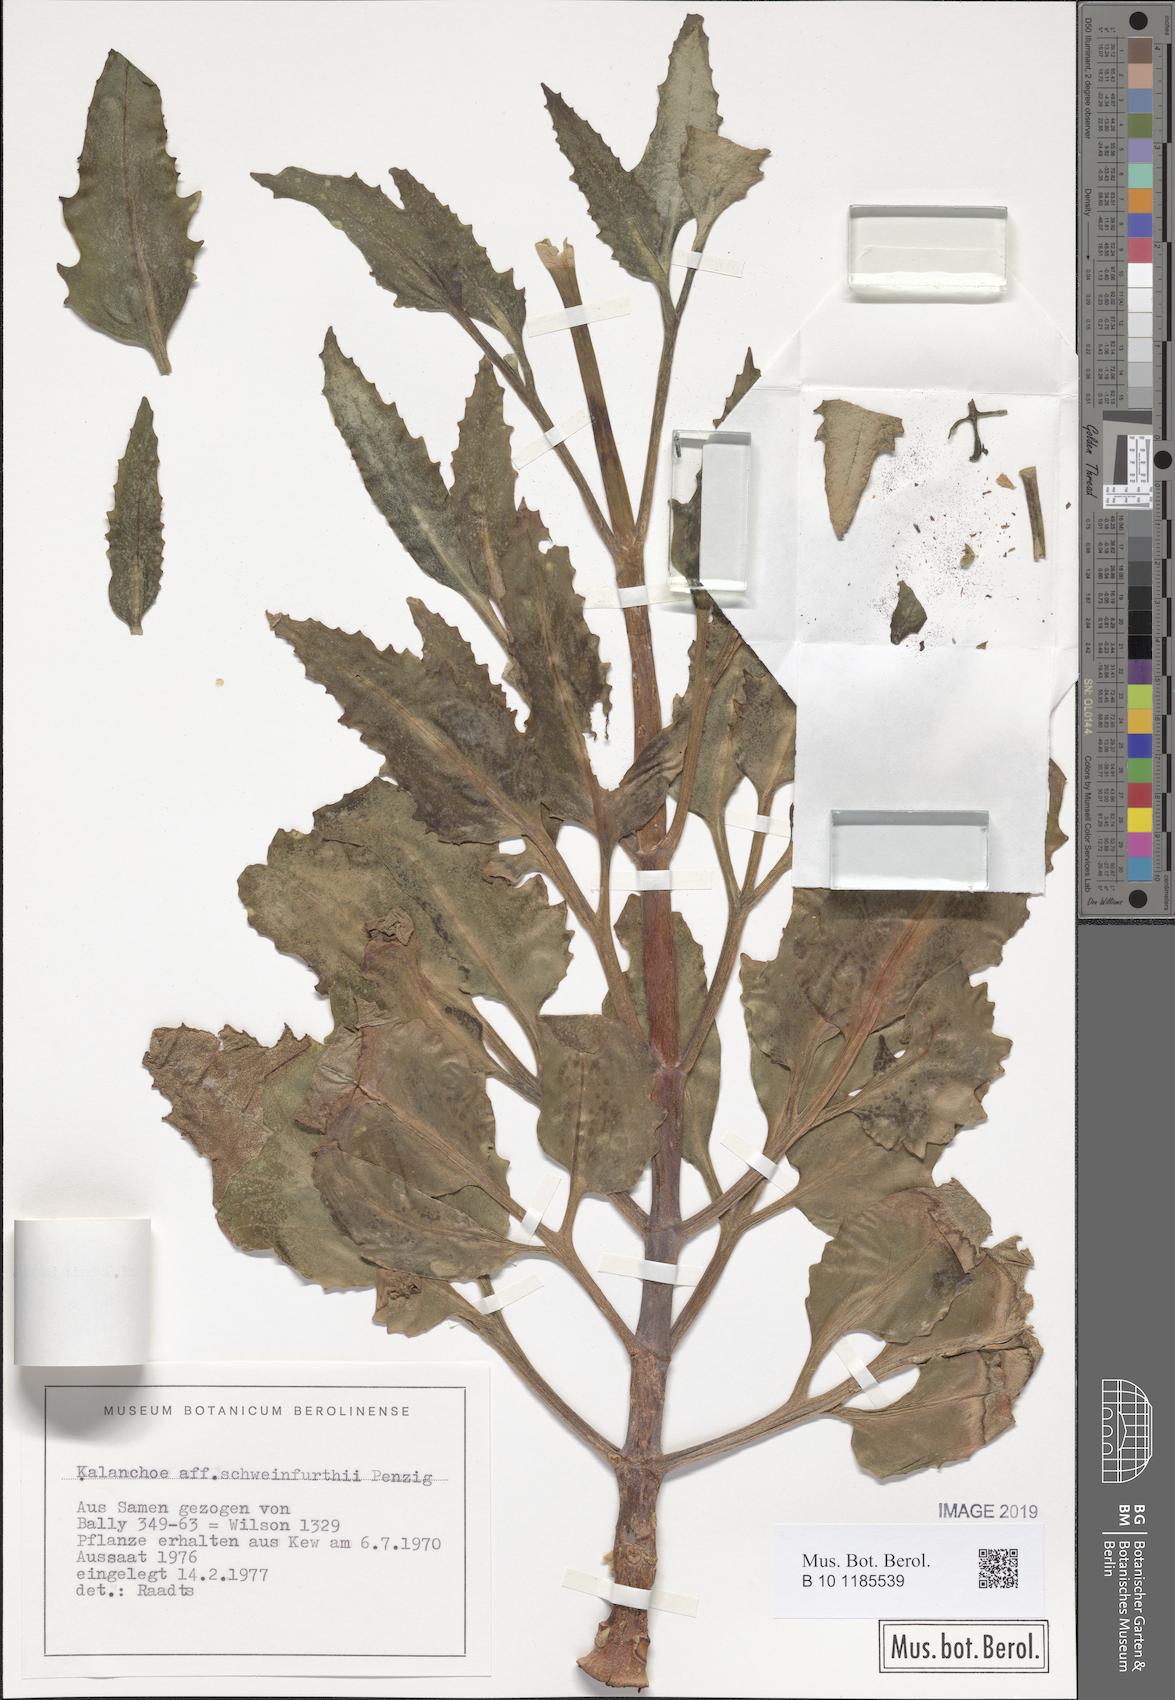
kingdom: Plantae
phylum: Tracheophyta
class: Magnoliopsida
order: Saxifragales
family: Crassulaceae
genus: Kalanchoe
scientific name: Kalanchoe laciniata
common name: Christmastree plant
